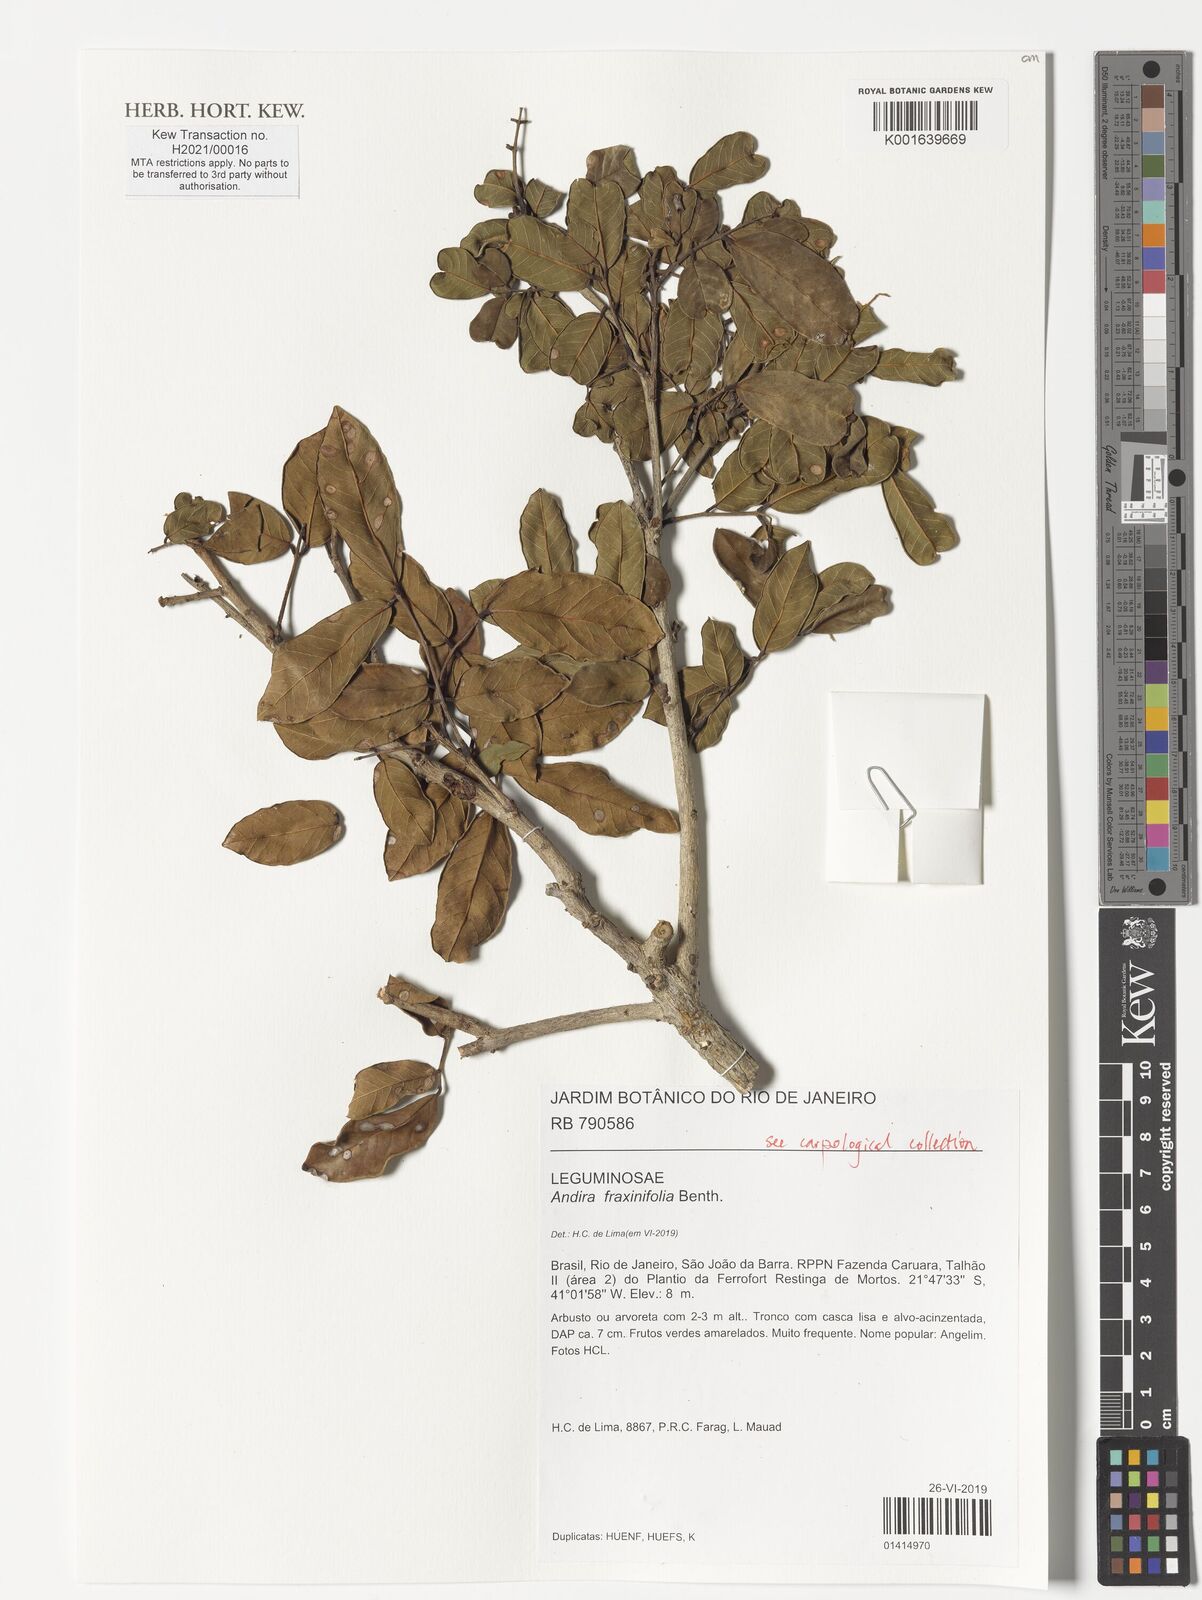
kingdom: Plantae
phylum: Tracheophyta
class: Magnoliopsida
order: Fabales
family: Fabaceae
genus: Andira
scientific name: Andira fraxinifolia
